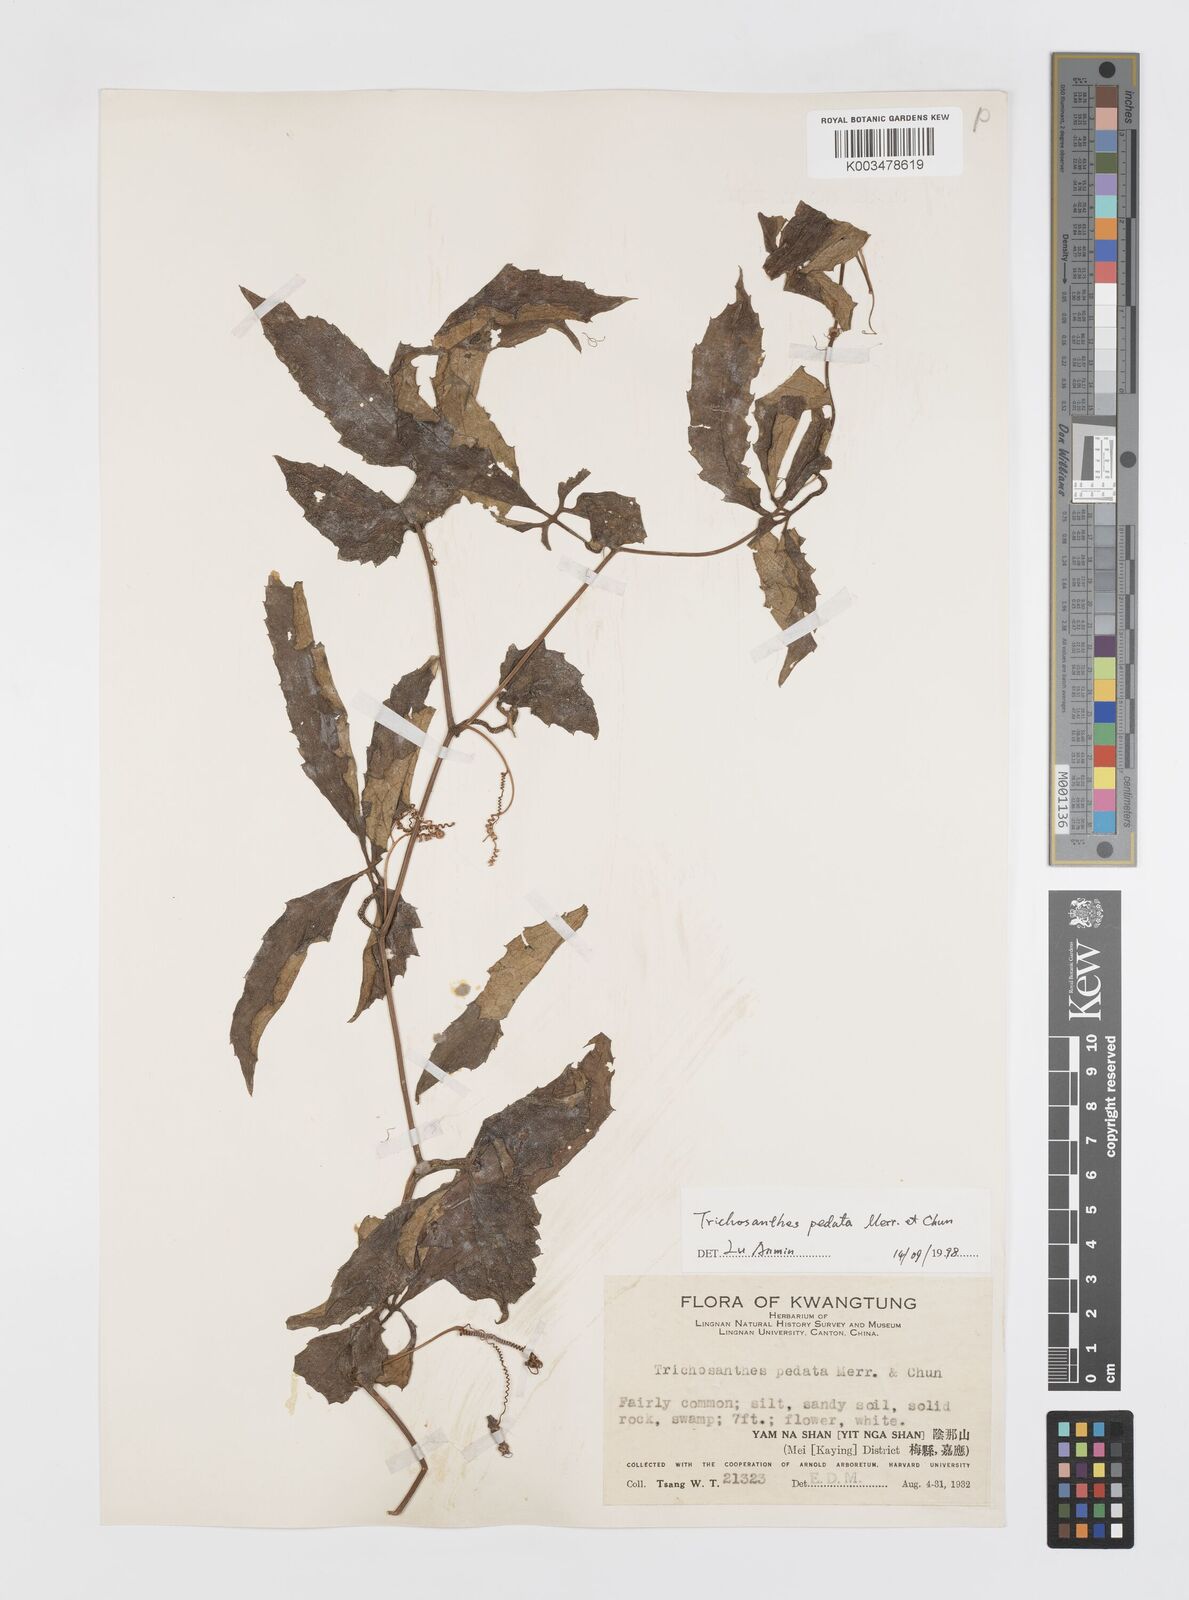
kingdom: Plantae
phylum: Tracheophyta
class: Magnoliopsida
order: Cucurbitales
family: Cucurbitaceae
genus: Trichosanthes
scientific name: Trichosanthes pedata
